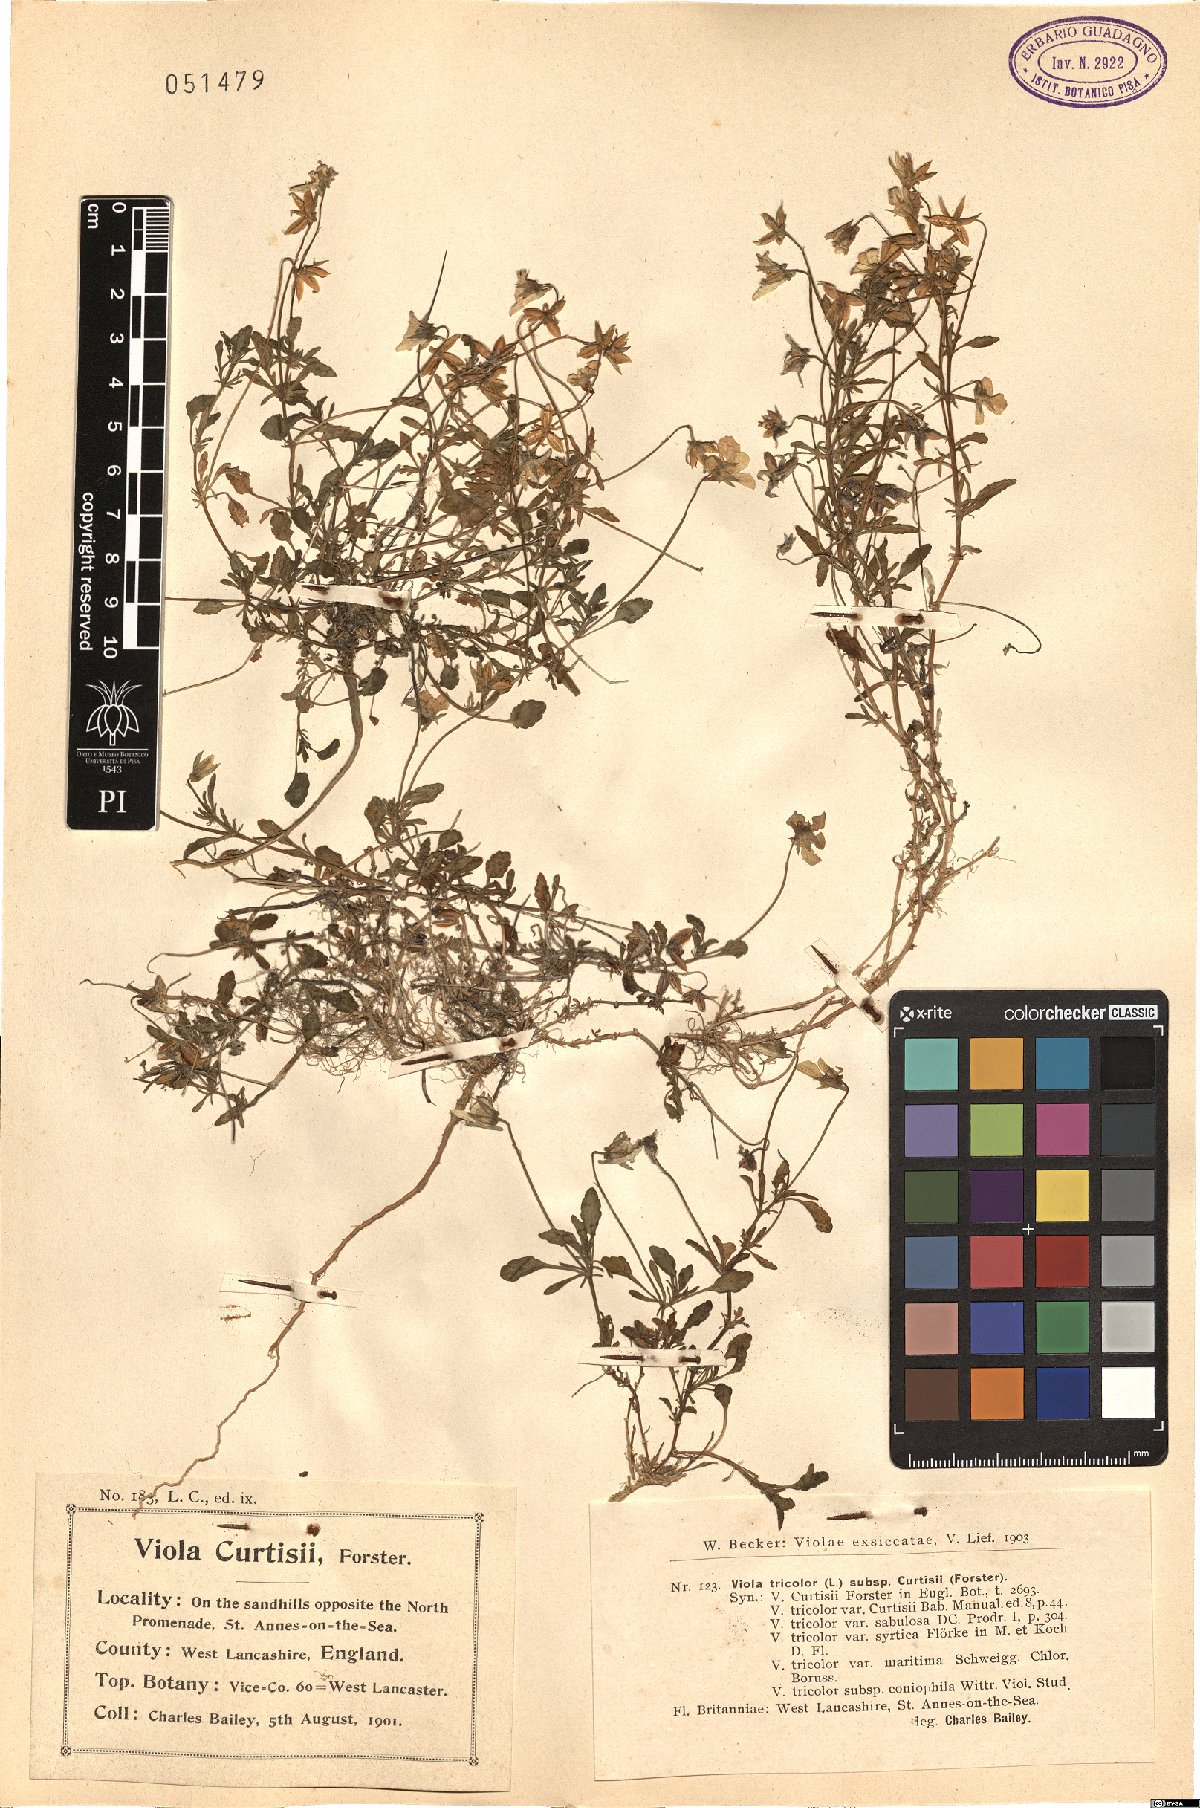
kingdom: Plantae
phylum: Tracheophyta
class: Magnoliopsida
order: Malpighiales
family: Violaceae
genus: Viola
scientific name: Viola tricolor
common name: Pansy
